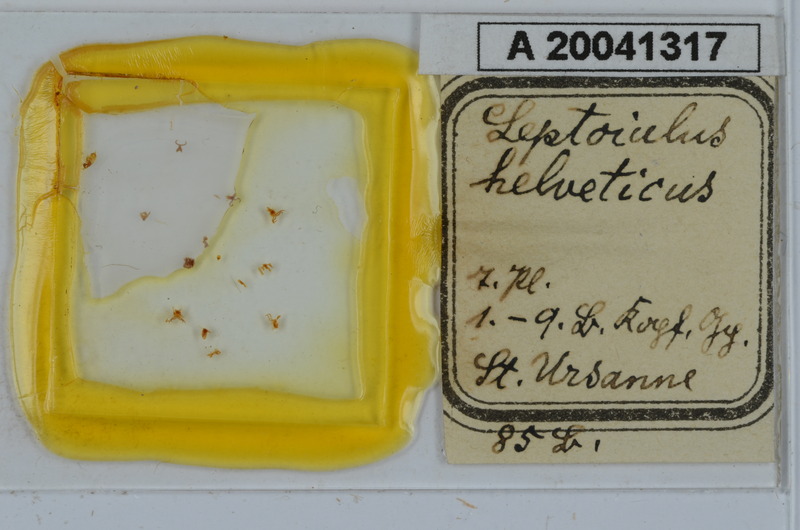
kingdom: Animalia
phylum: Arthropoda
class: Diplopoda
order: Julida
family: Julidae
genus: Leptoiulus
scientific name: Leptoiulus helveticus
